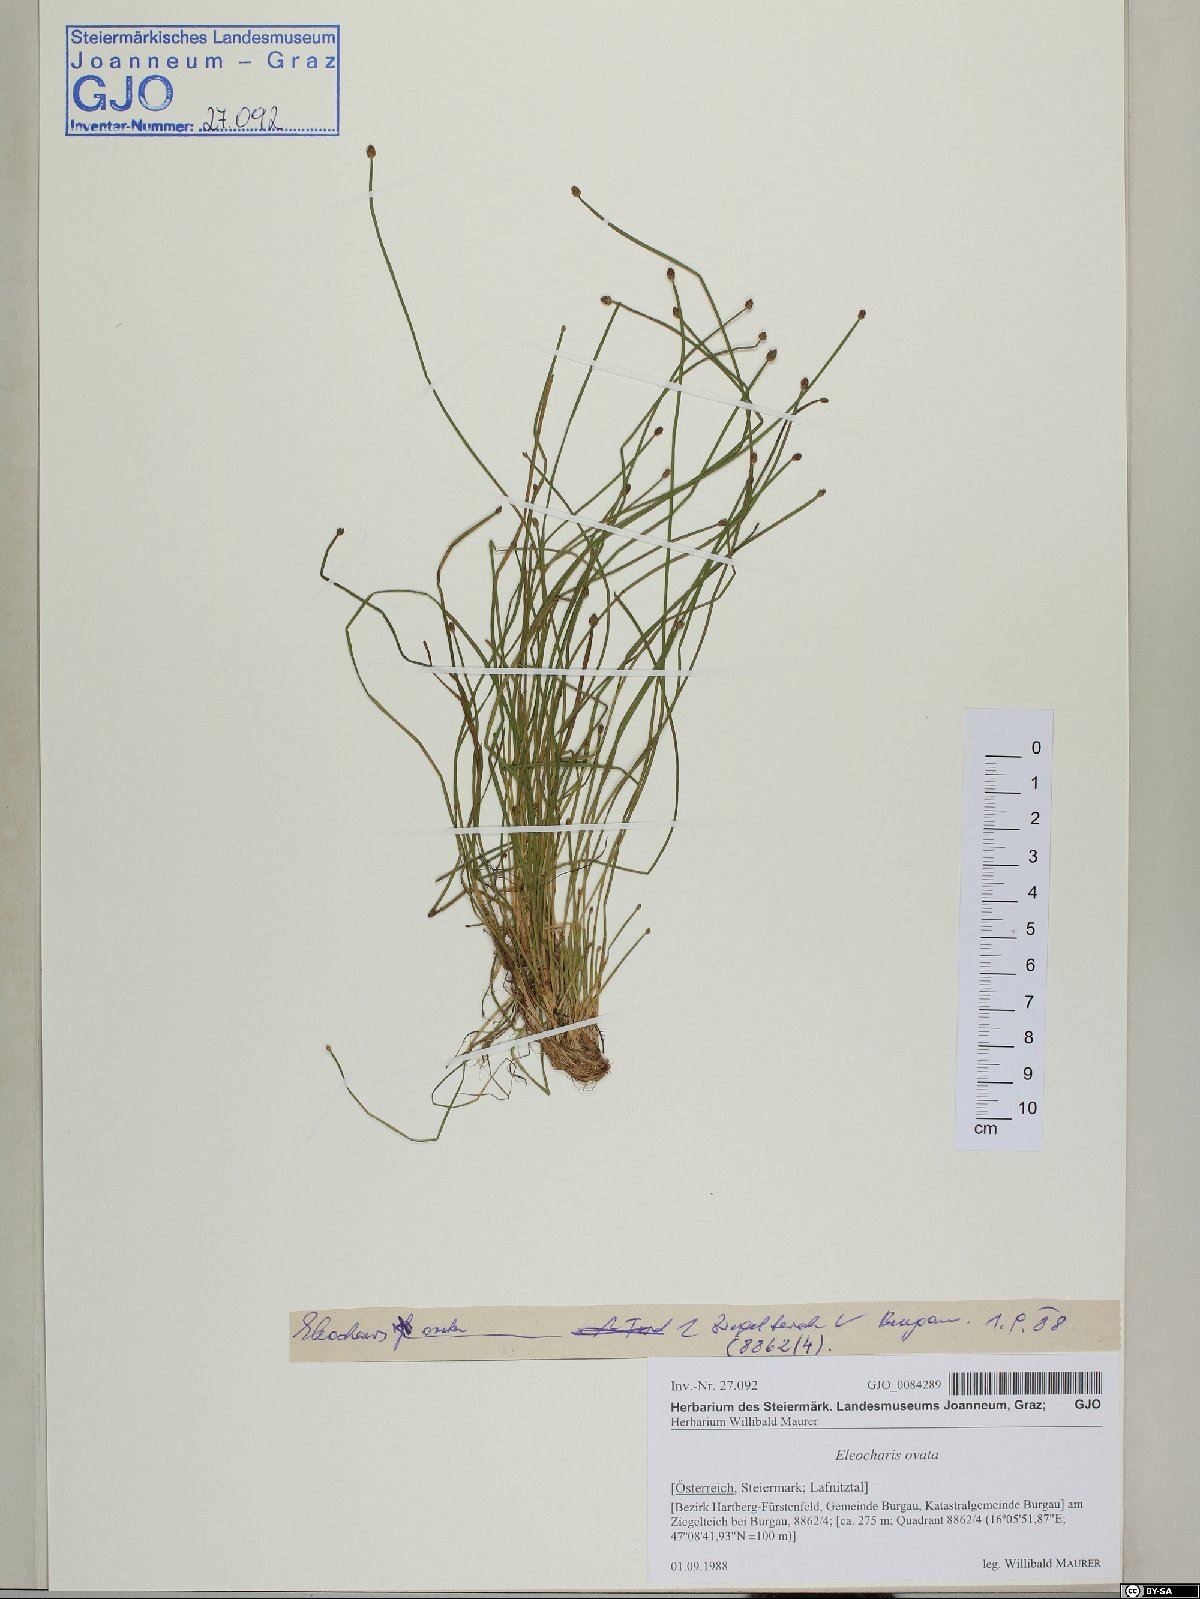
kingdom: Plantae
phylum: Tracheophyta
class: Liliopsida
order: Poales
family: Cyperaceae
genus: Eleocharis
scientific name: Eleocharis ovata
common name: Oval spike-rush
